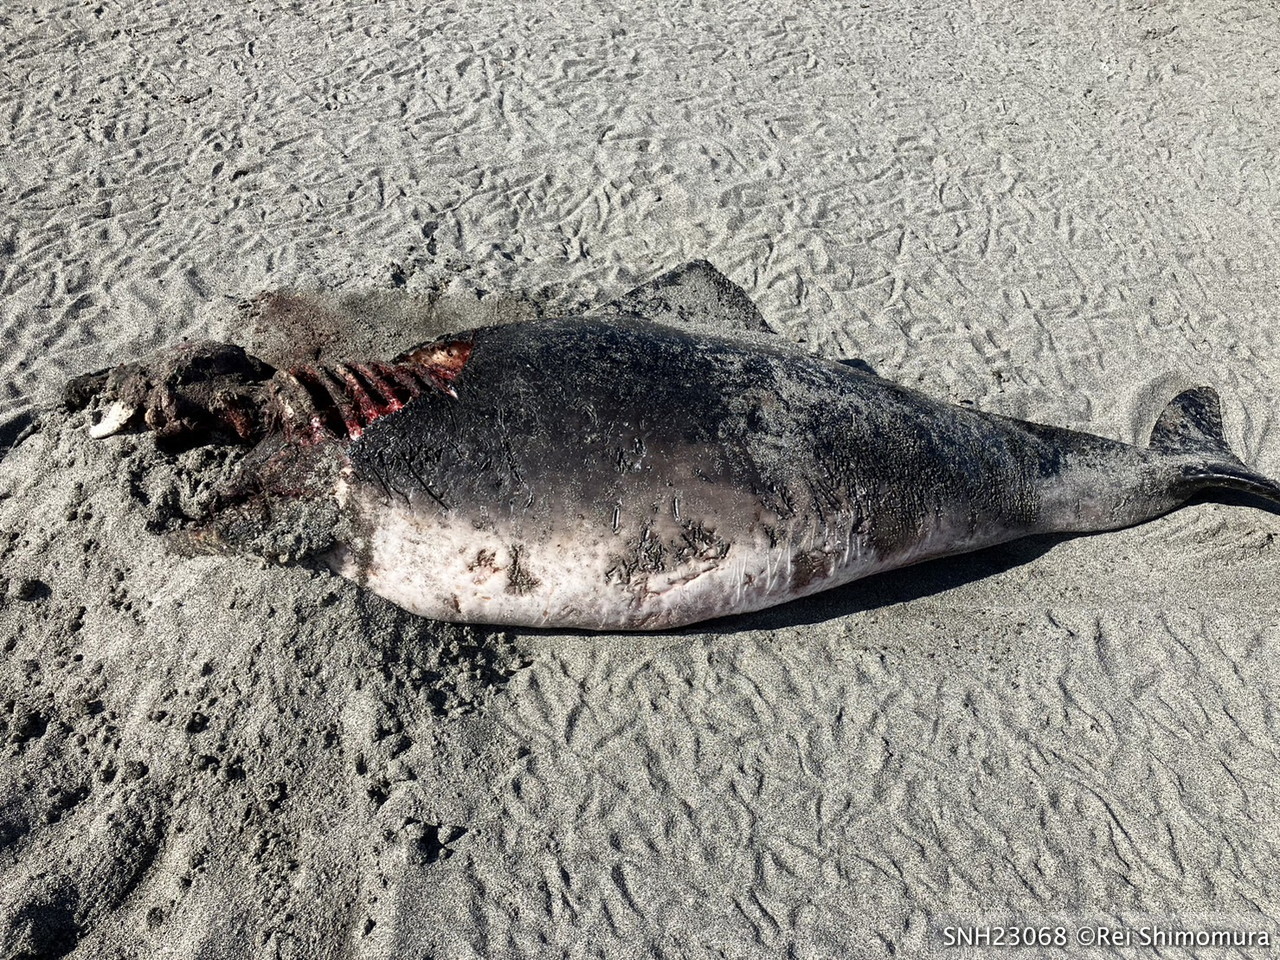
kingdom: Animalia
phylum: Chordata
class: Mammalia
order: Cetacea
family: Phocoenidae
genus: Phocoena
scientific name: Phocoena phocoena
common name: Harbour porpoise
